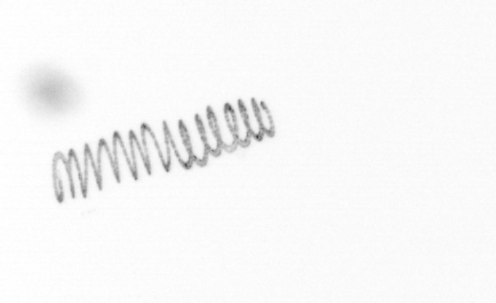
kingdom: Chromista
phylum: Ochrophyta
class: Bacillariophyceae
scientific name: Bacillariophyceae
